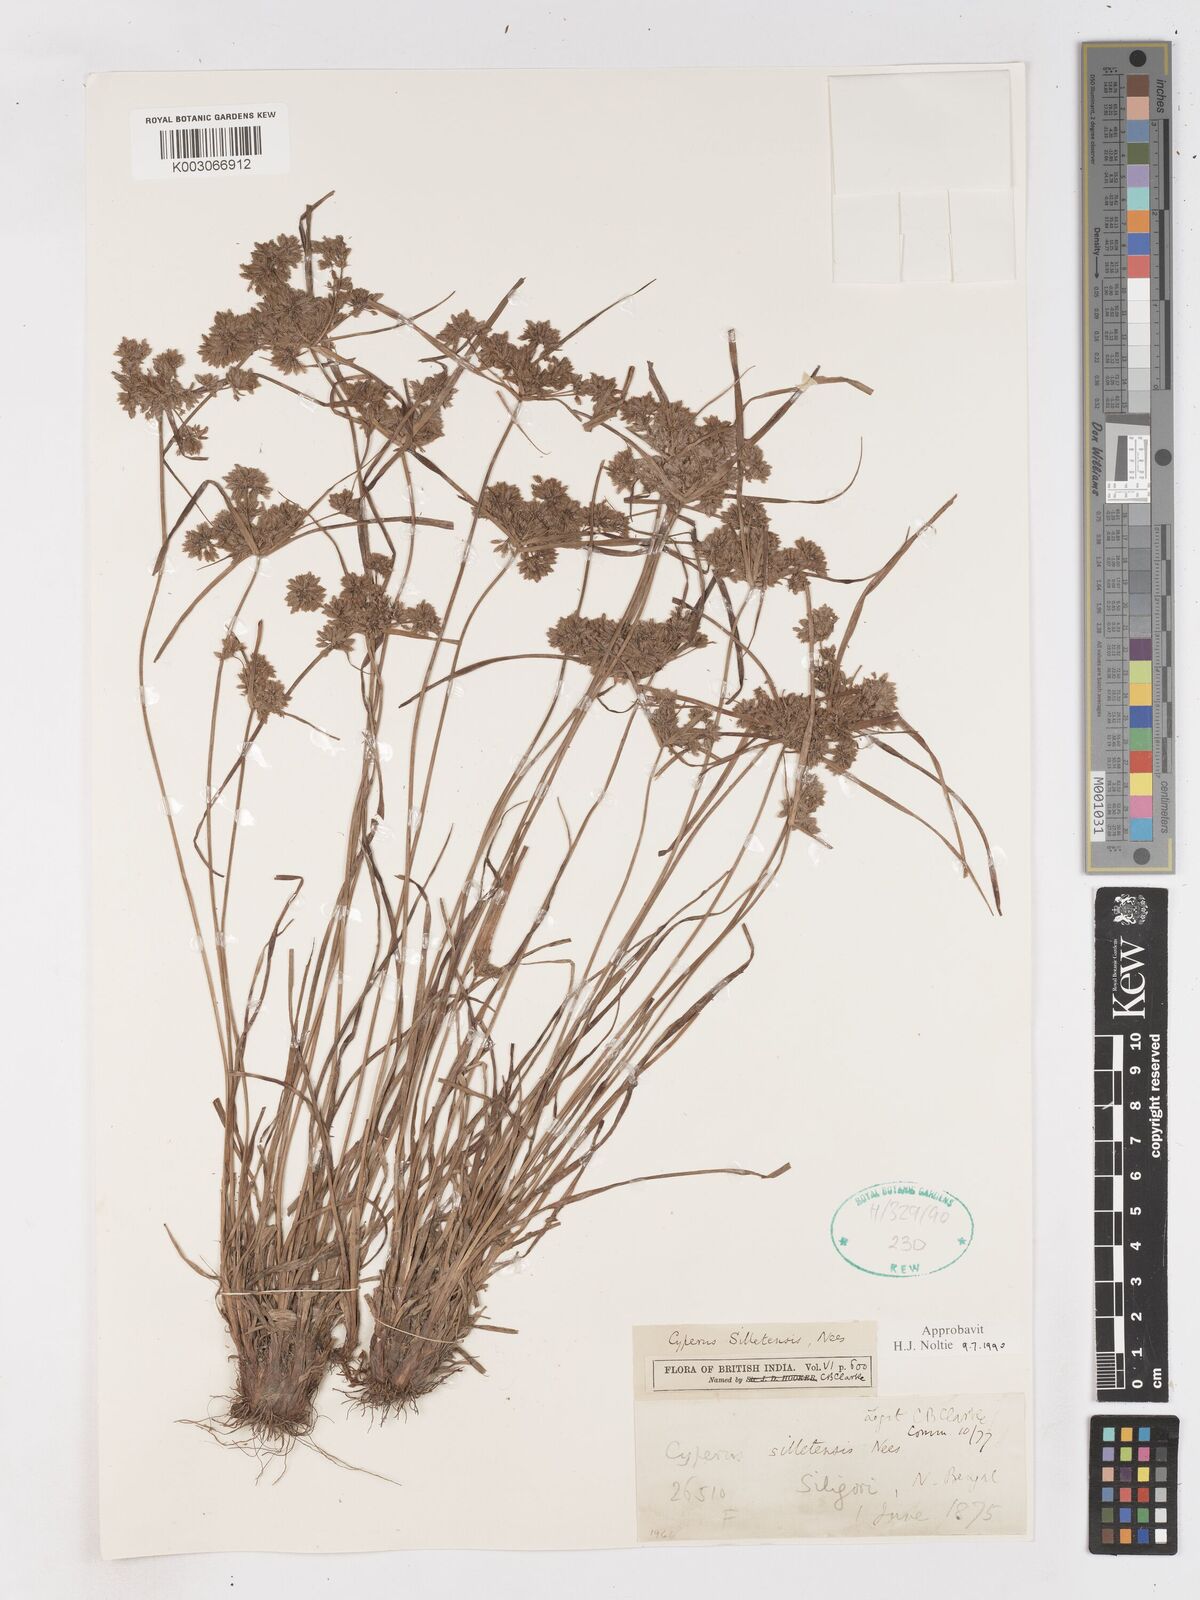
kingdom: Plantae
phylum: Tracheophyta
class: Liliopsida
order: Poales
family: Cyperaceae
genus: Cyperus
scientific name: Cyperus silletensis
